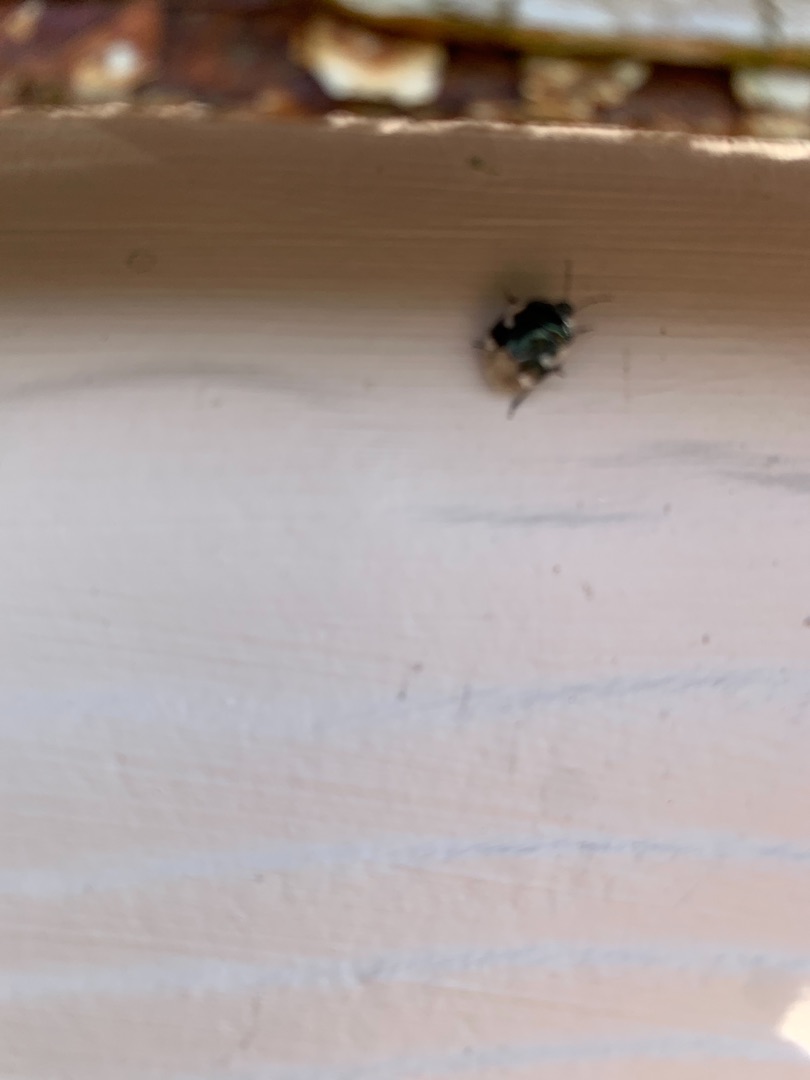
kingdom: Animalia
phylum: Arthropoda
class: Insecta
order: Hemiptera
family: Cydnidae
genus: Tritomegas
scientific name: Tritomegas bicolor
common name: Spættet tornben
